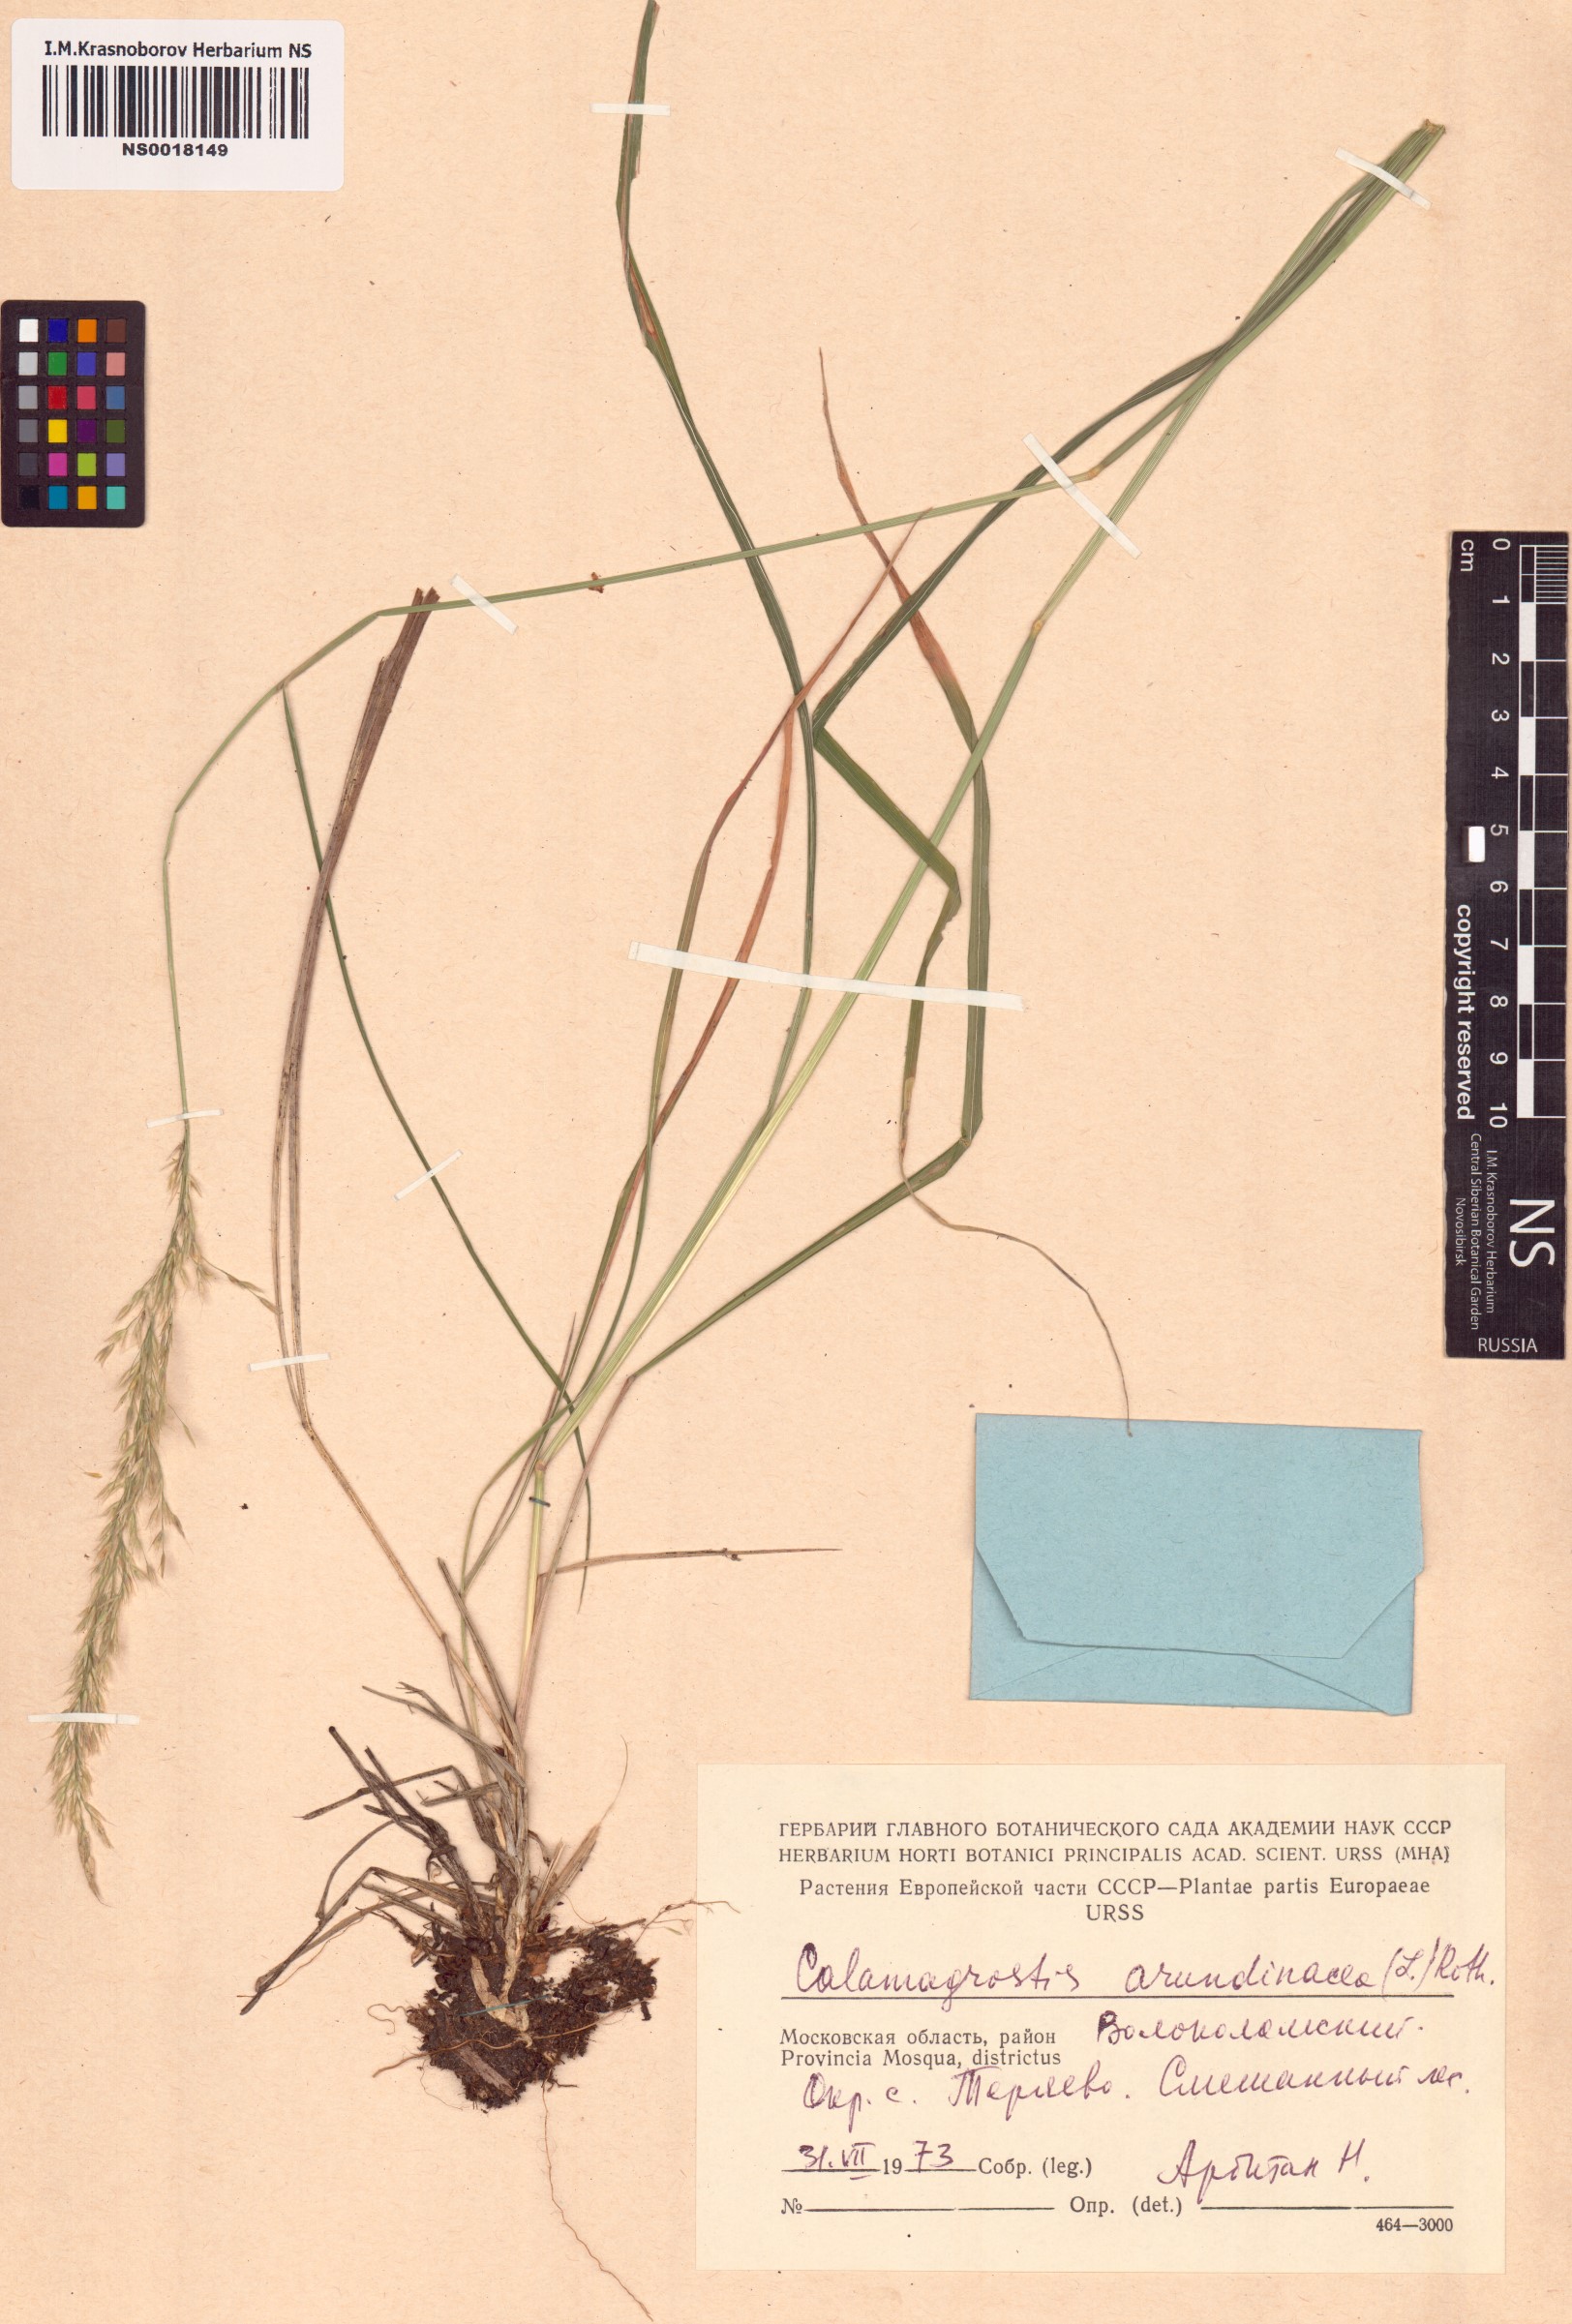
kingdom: Plantae
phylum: Tracheophyta
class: Liliopsida
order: Poales
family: Poaceae
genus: Calamagrostis
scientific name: Calamagrostis arundinacea
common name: Metskastik
